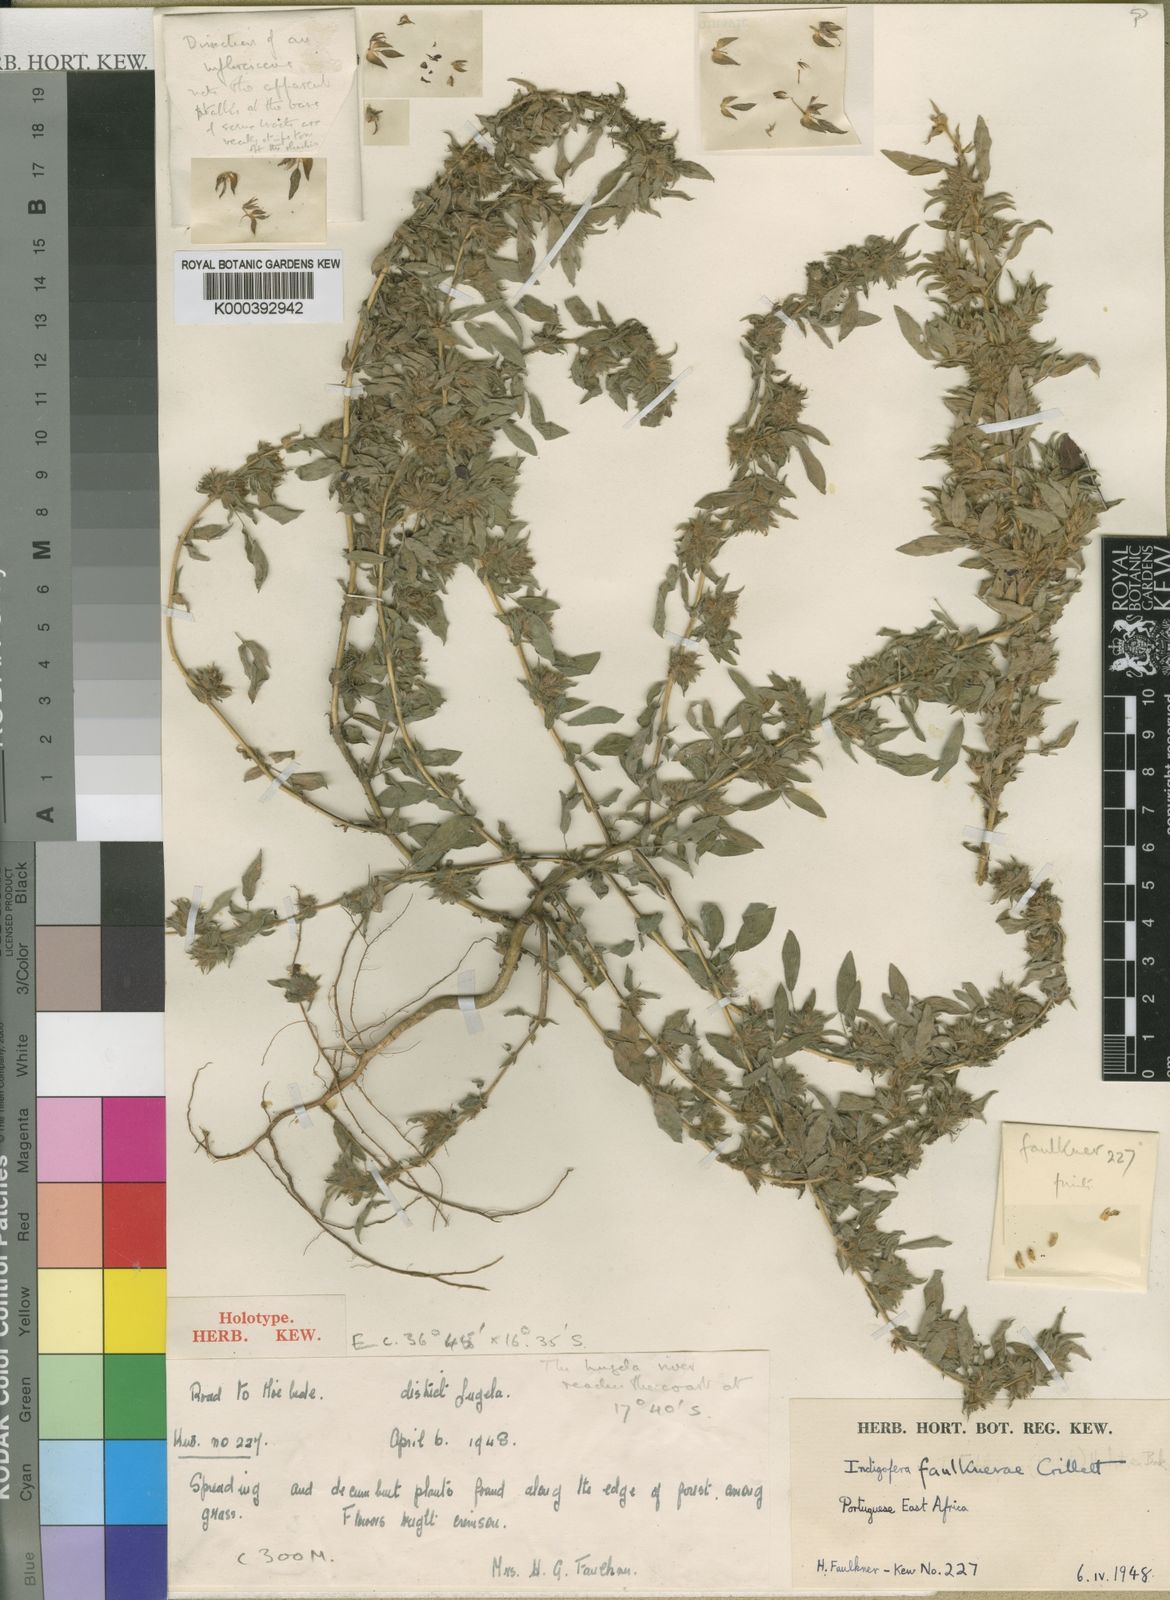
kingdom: Plantae
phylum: Tracheophyta
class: Magnoliopsida
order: Fabales
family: Fabaceae
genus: Indigofera
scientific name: Indigofera faulknerae
